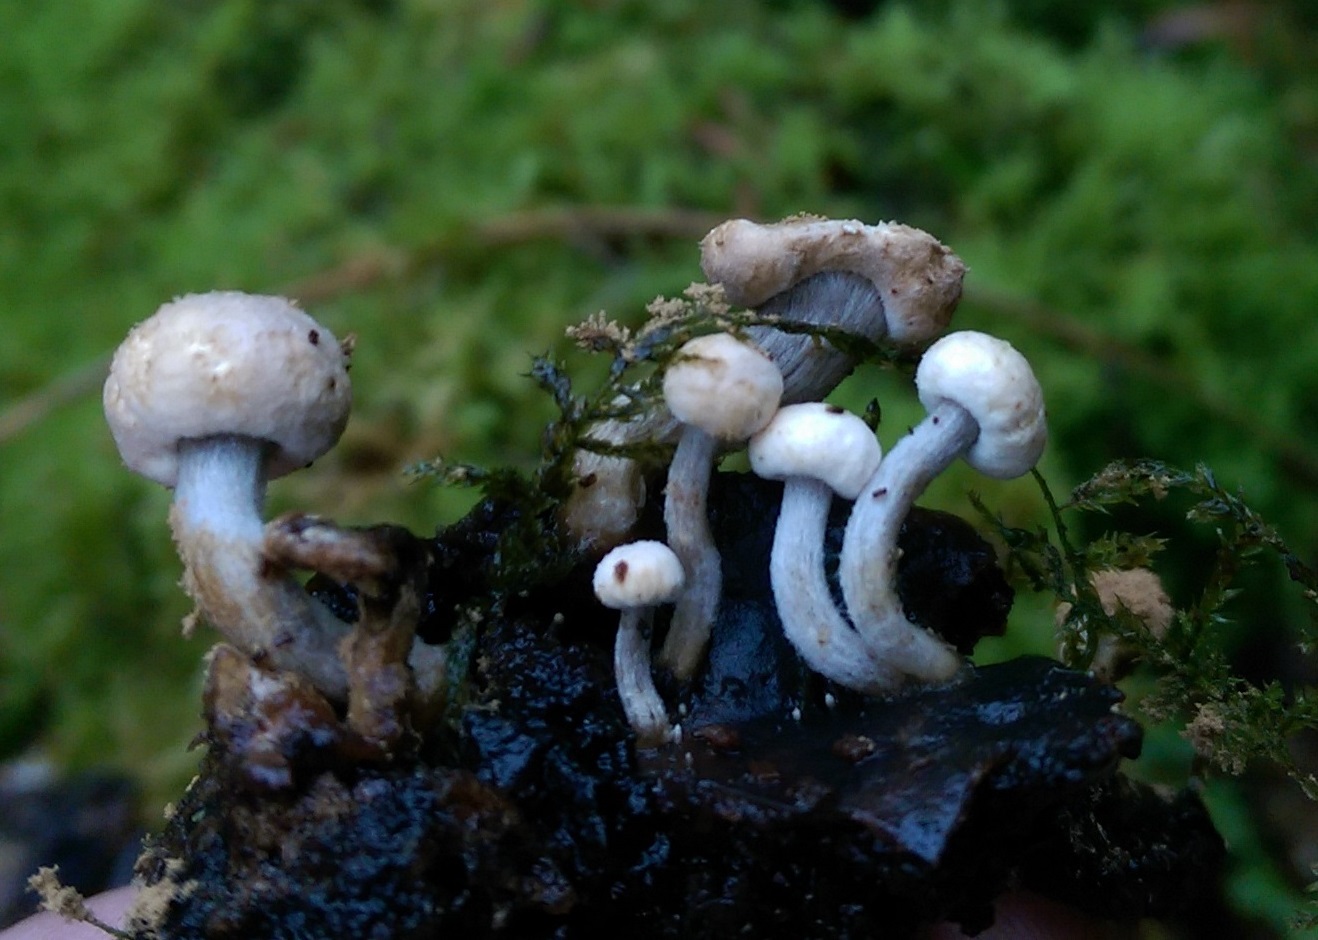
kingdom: Fungi
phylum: Basidiomycota
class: Agaricomycetes
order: Agaricales
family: Lyophyllaceae
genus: Asterophora
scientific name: Asterophora lycoperdoides
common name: brunpudret snyltehat
